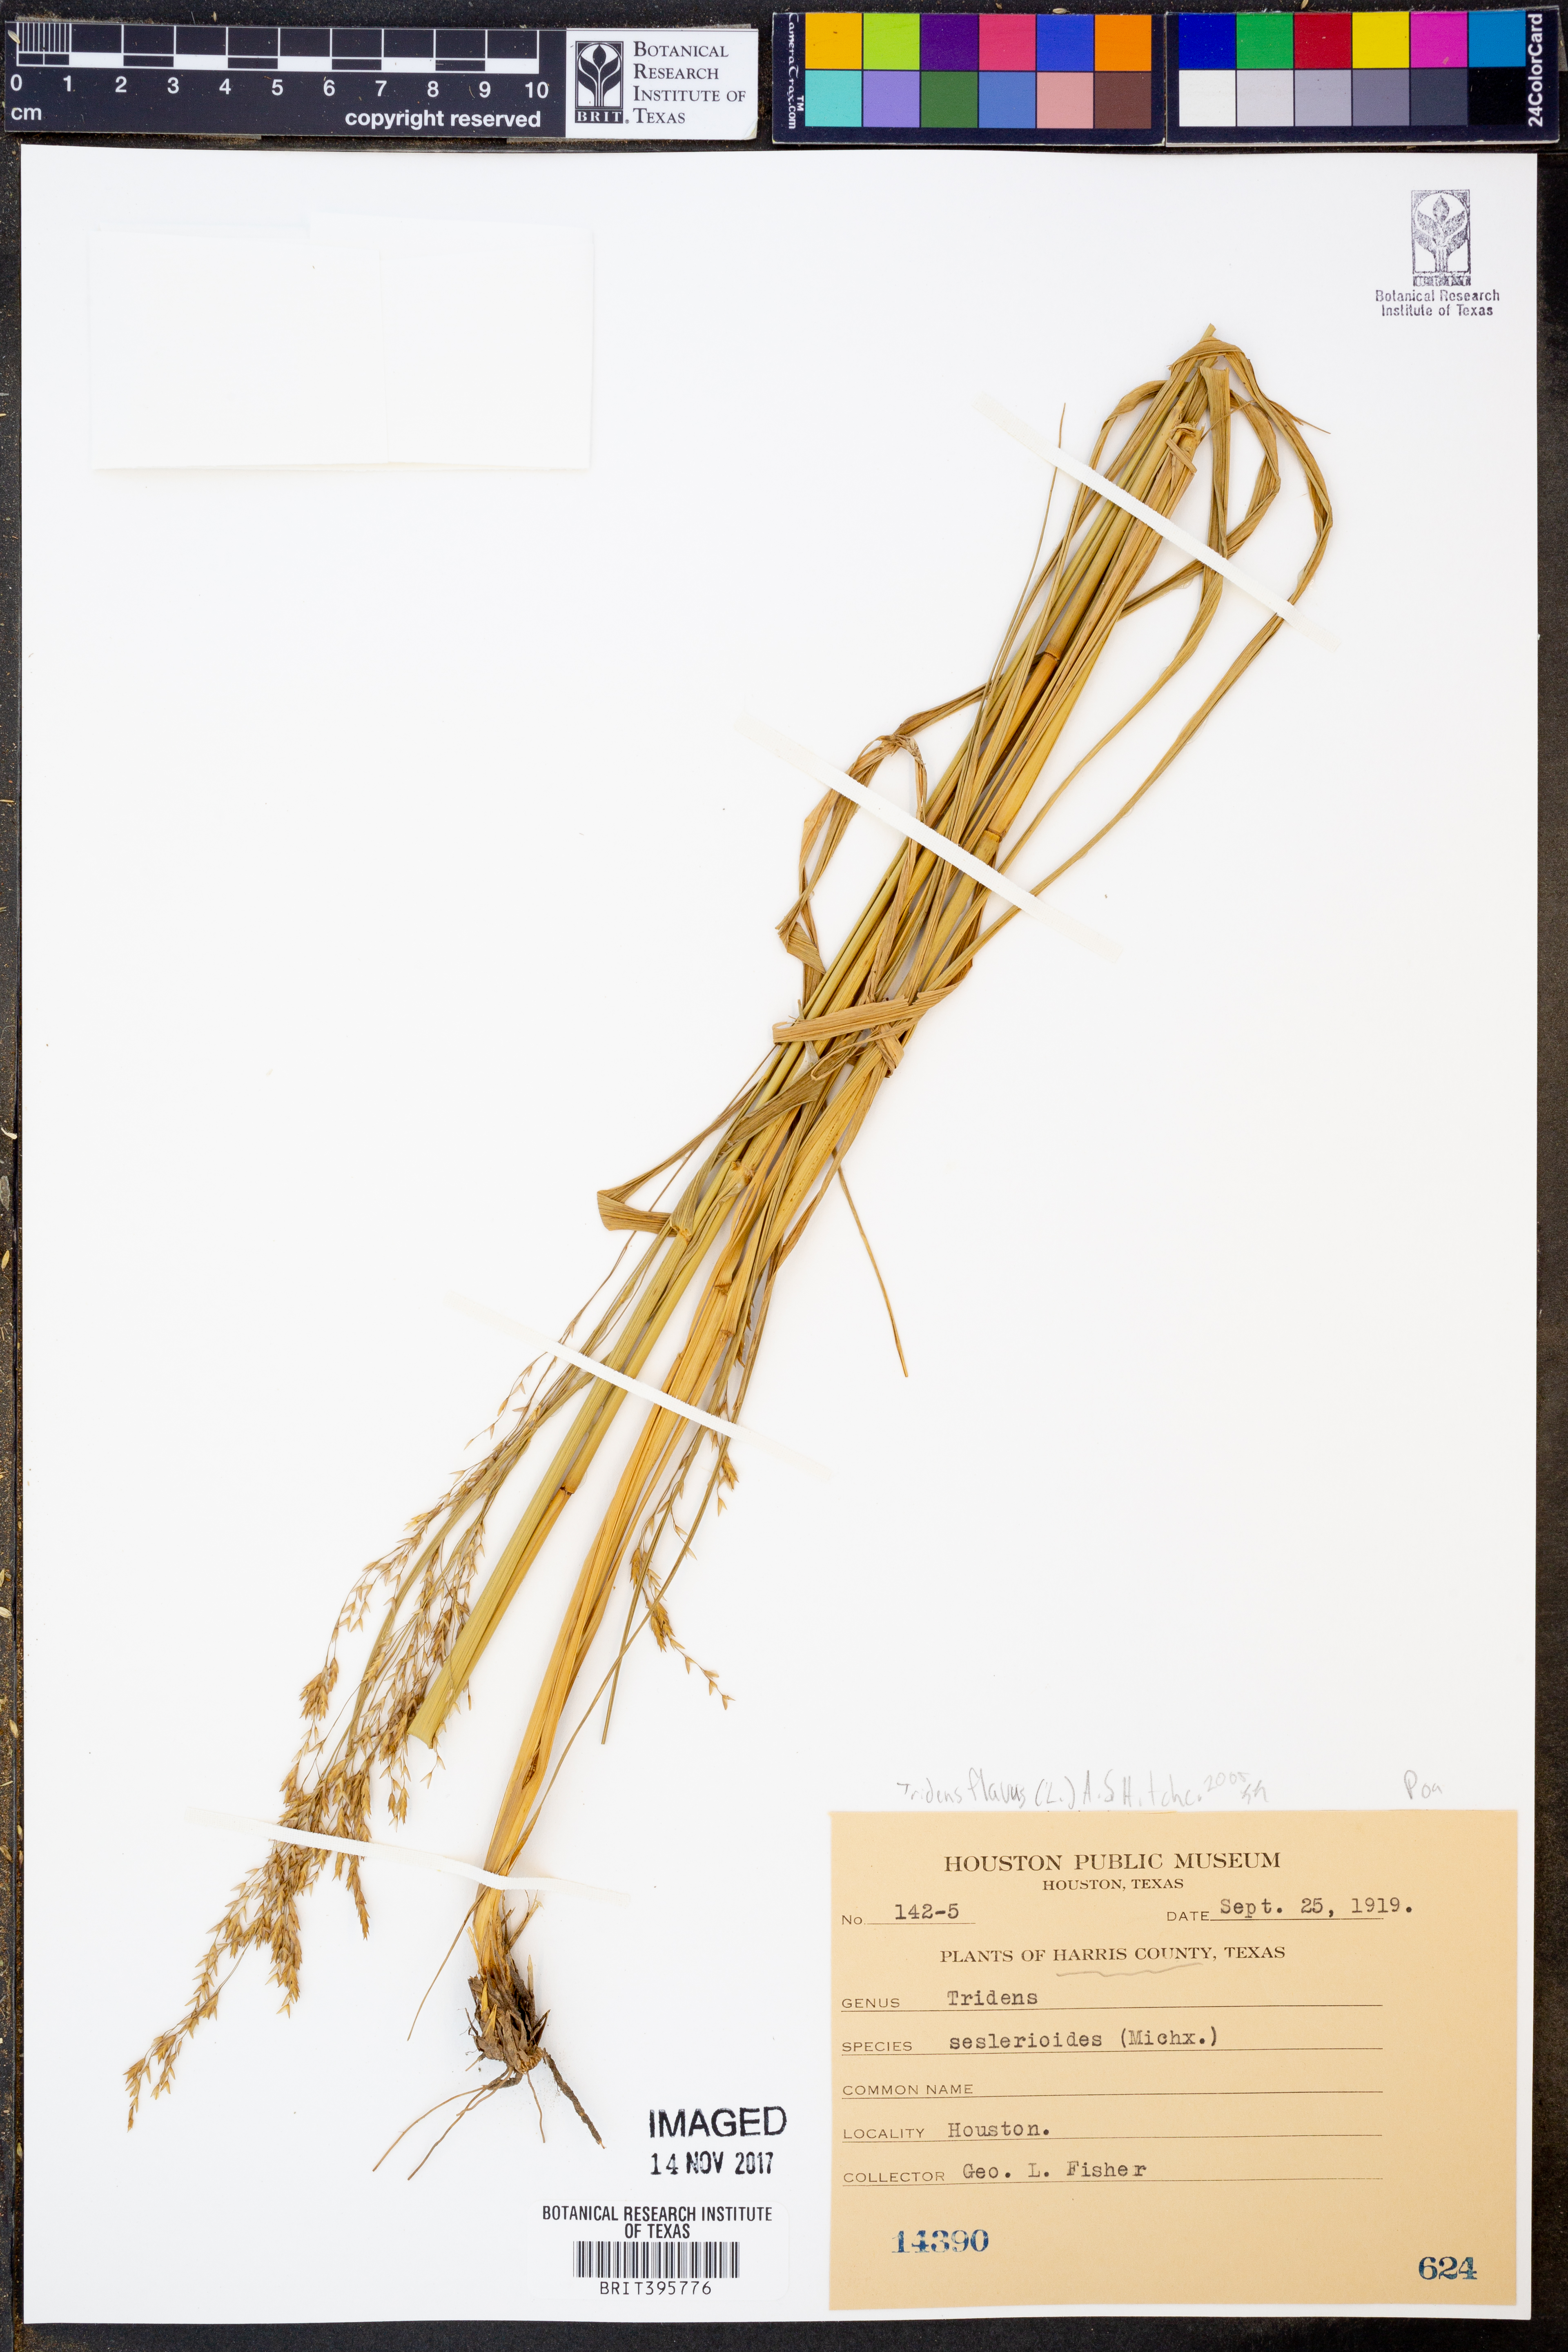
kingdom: Plantae
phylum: Tracheophyta
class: Liliopsida
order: Poales
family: Poaceae
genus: Tridens
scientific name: Tridens flavus
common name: Purpletop
